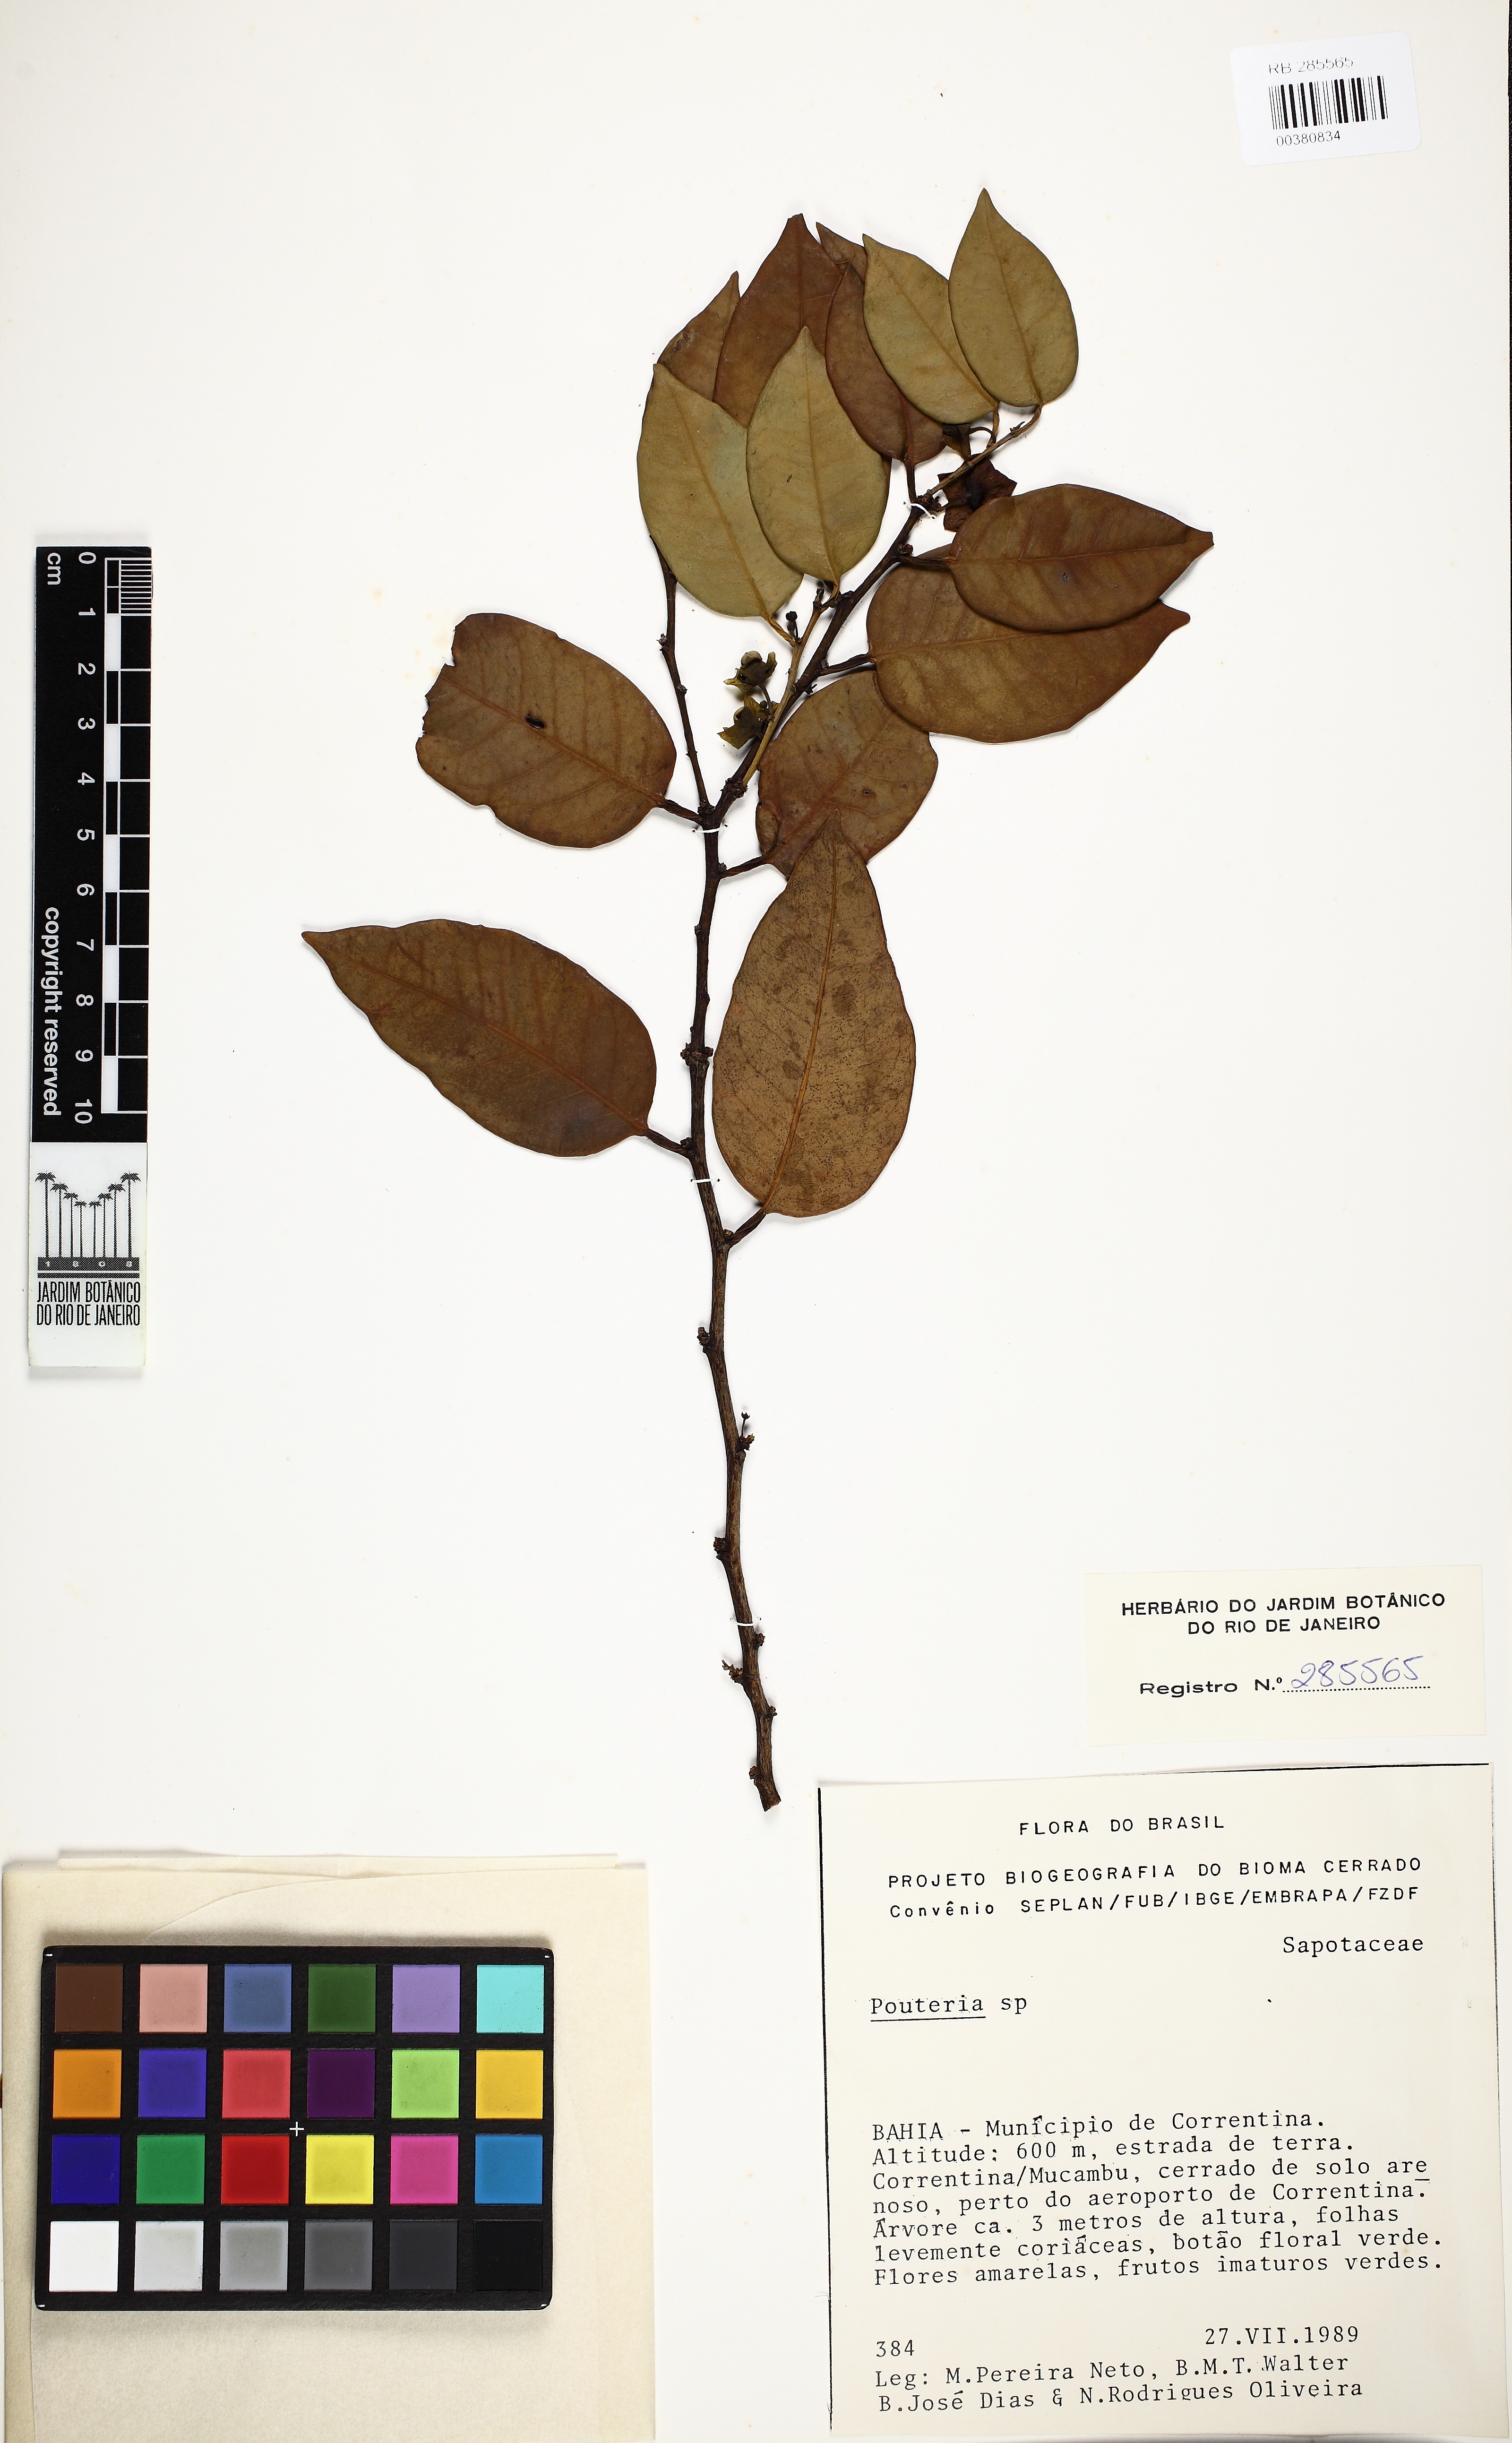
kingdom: Plantae
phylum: Tracheophyta
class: Magnoliopsida
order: Ericales
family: Ebenaceae
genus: Diospyros
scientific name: Diospyros
